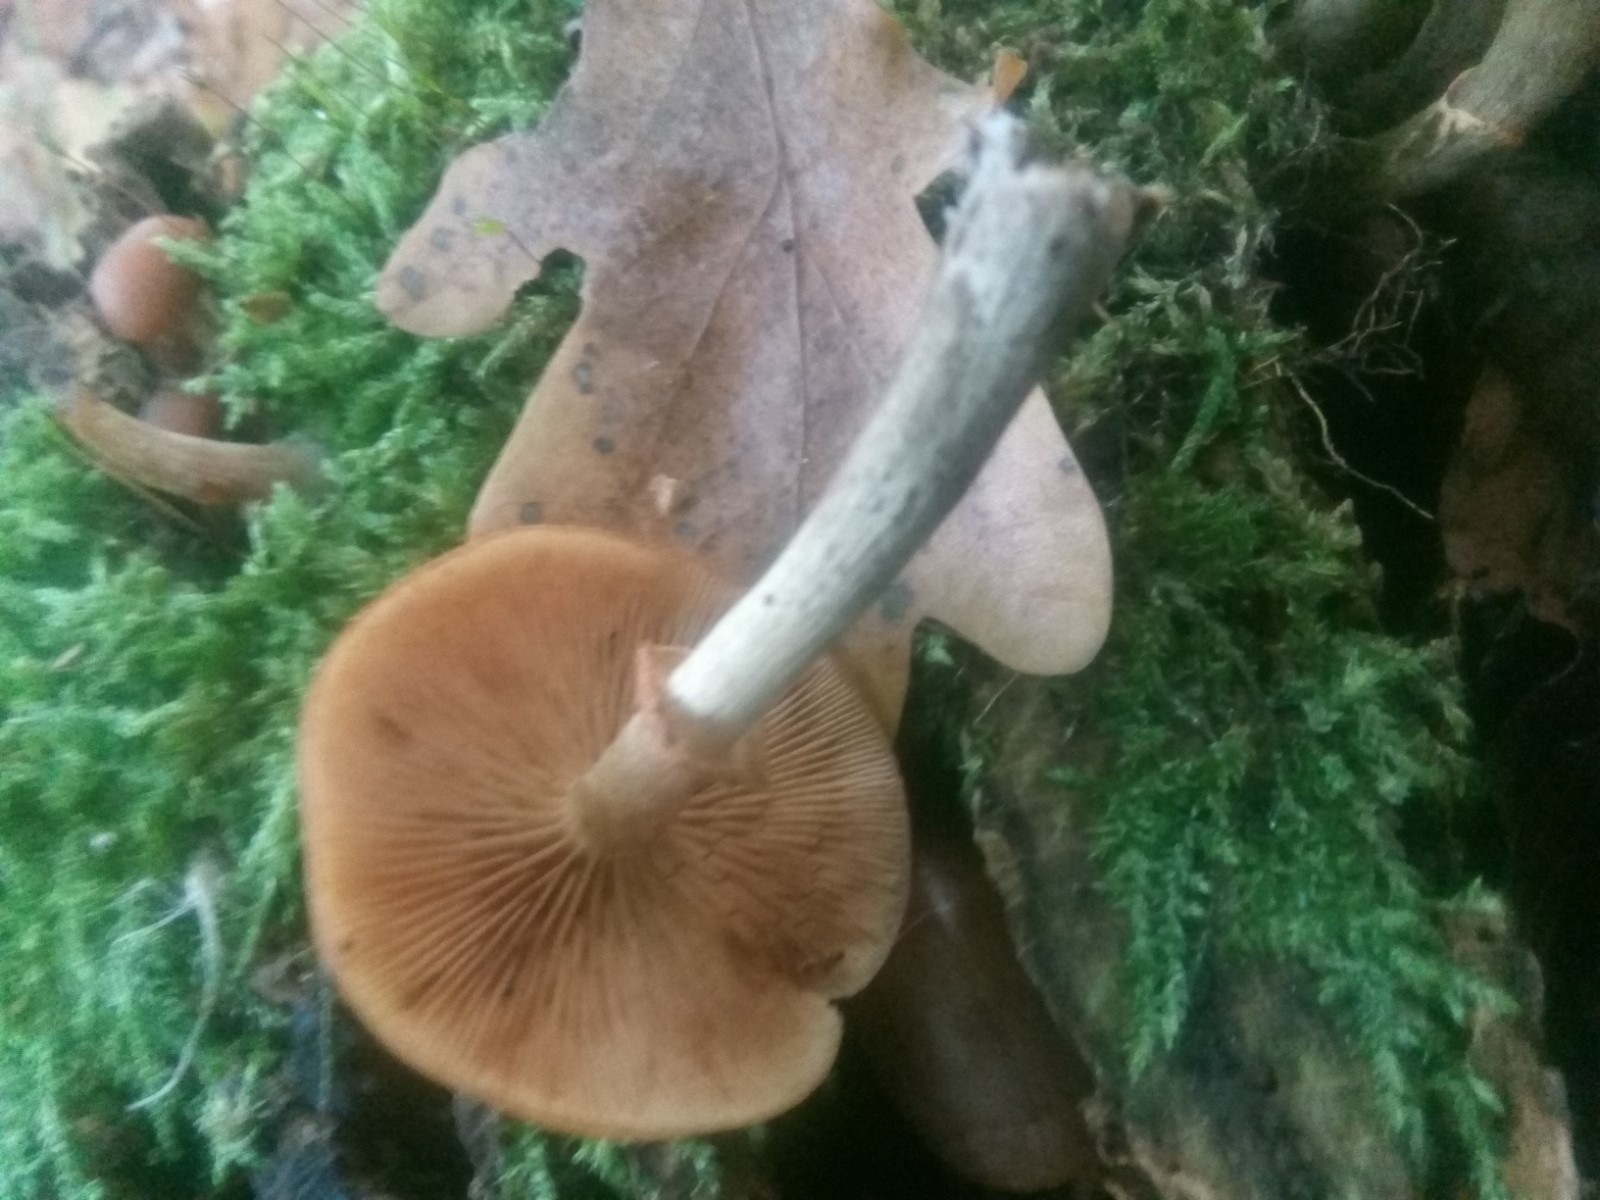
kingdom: Fungi
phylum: Basidiomycota
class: Agaricomycetes
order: Agaricales
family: Hymenogastraceae
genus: Galerina
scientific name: Galerina marginata
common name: randbæltet hjelmhat
